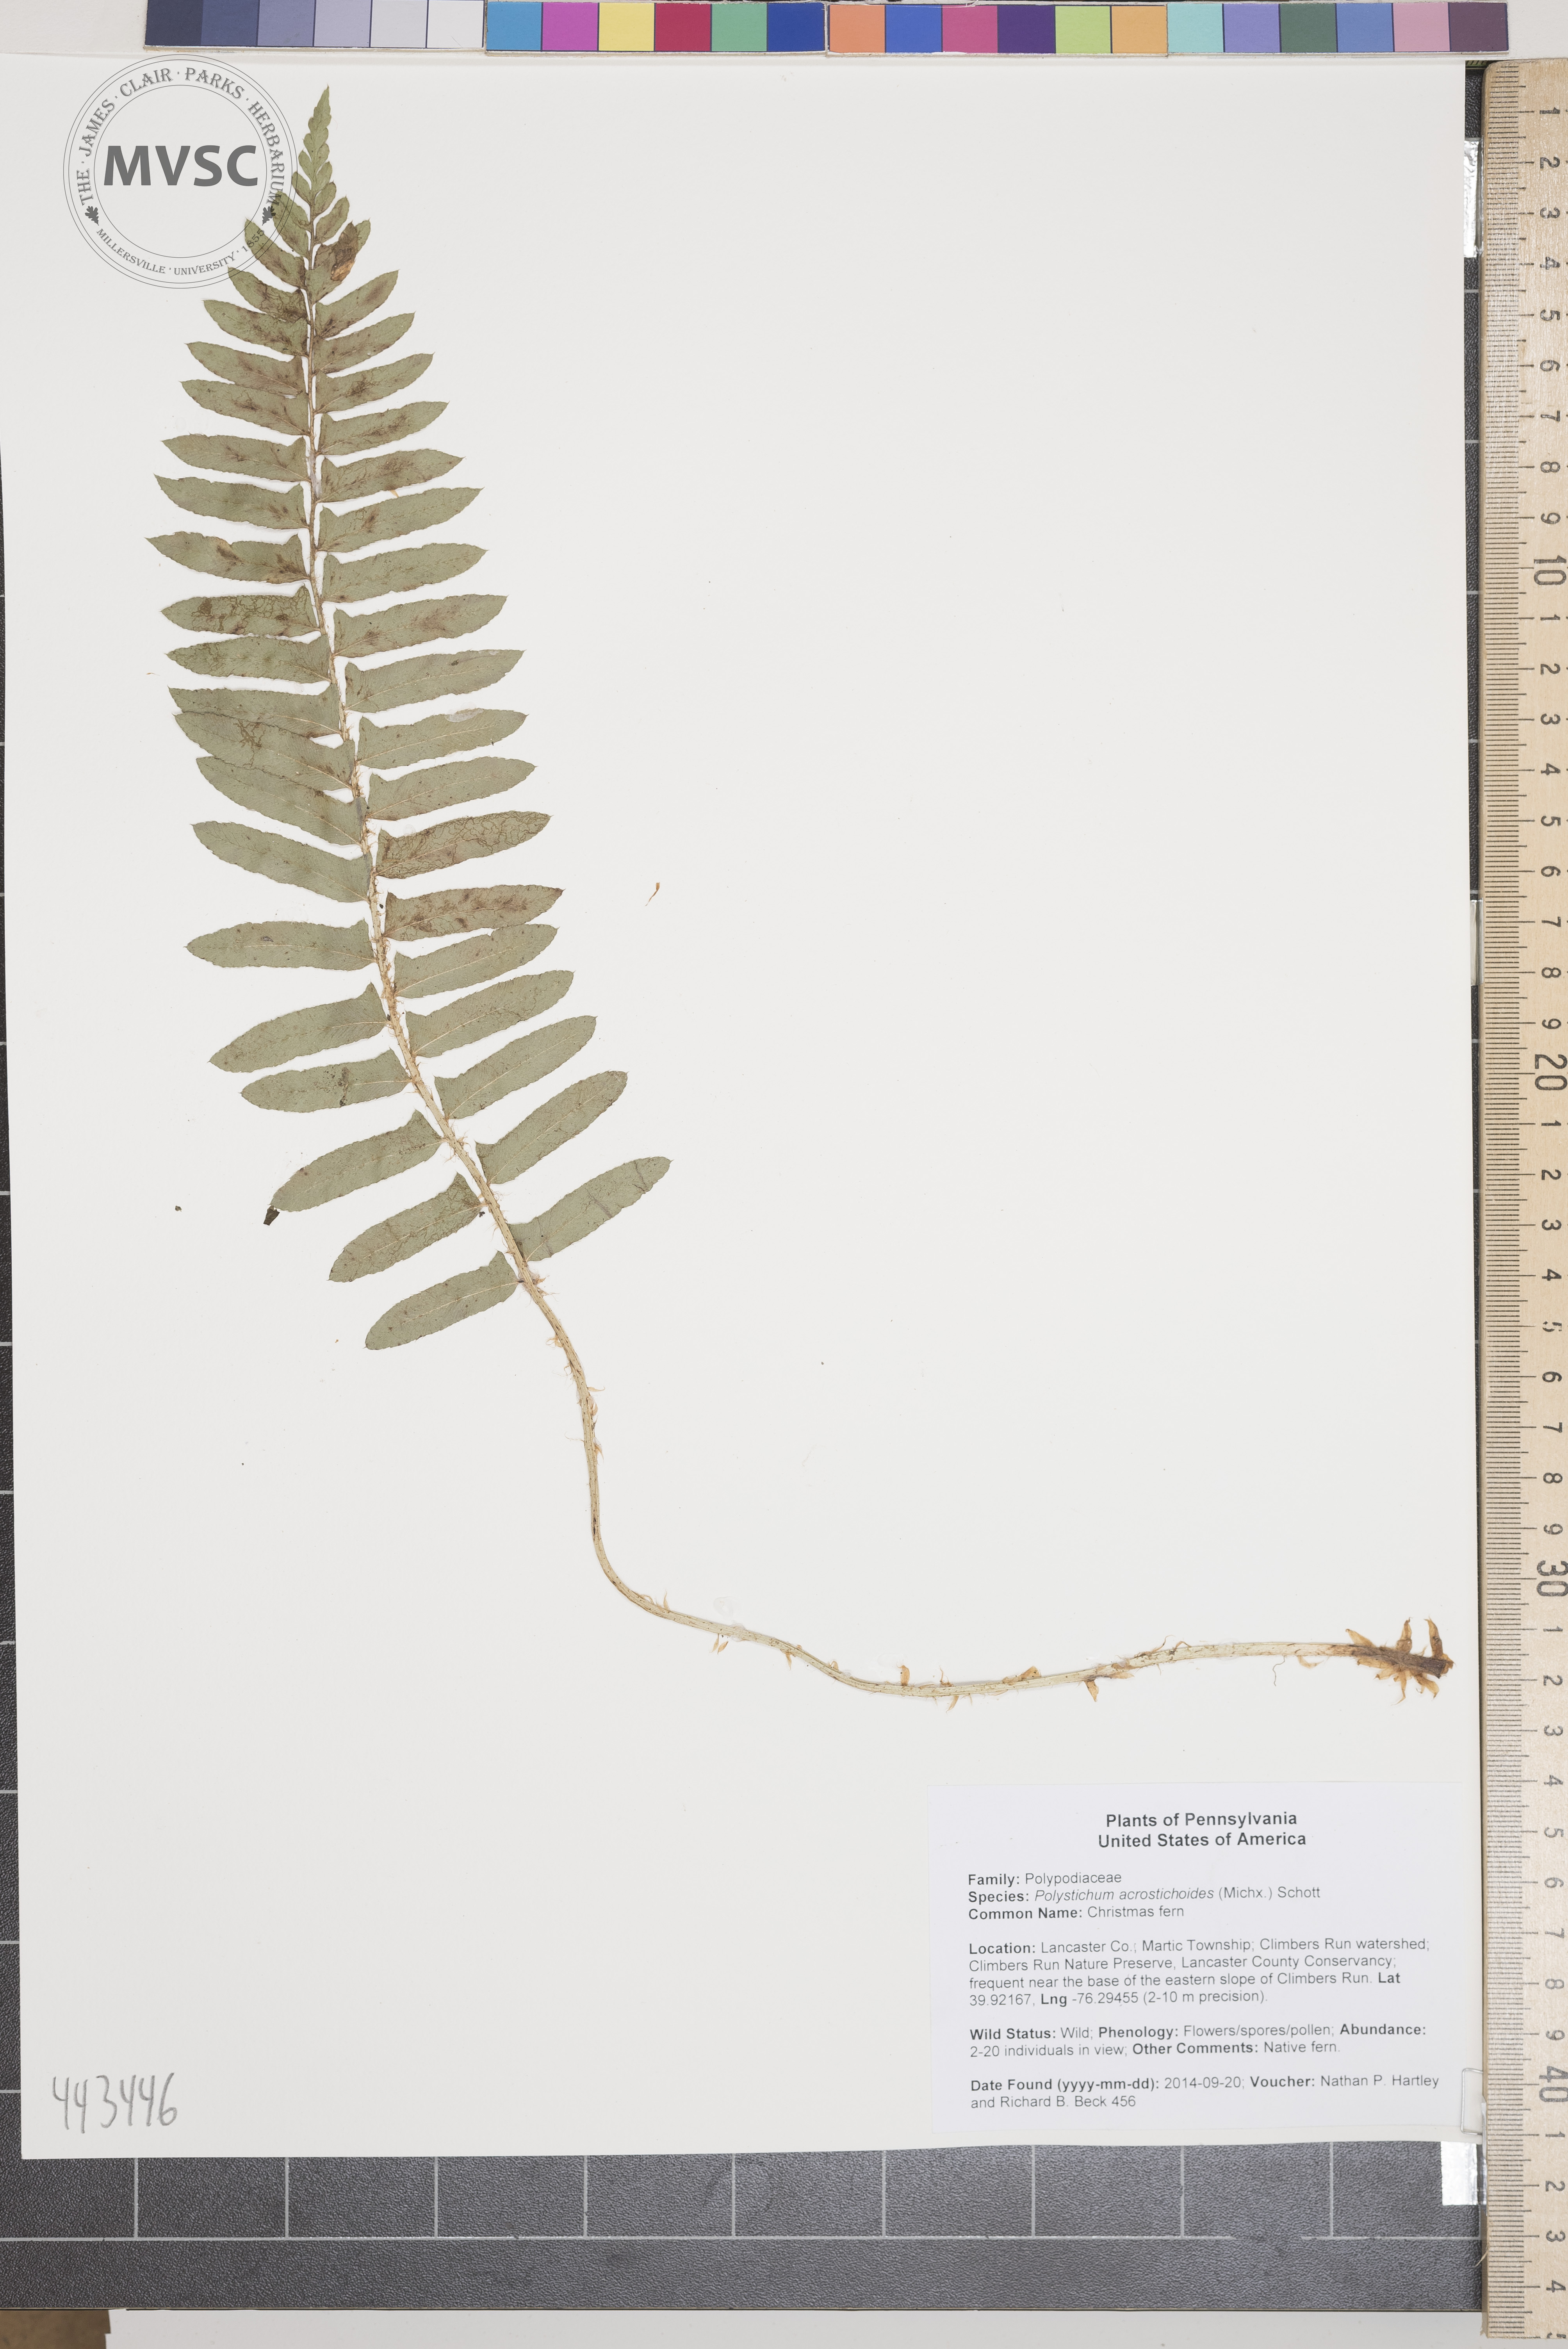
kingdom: Plantae
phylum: Tracheophyta
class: Polypodiopsida
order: Polypodiales
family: Dryopteridaceae
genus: Polystichum
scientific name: Polystichum acrostichoides
